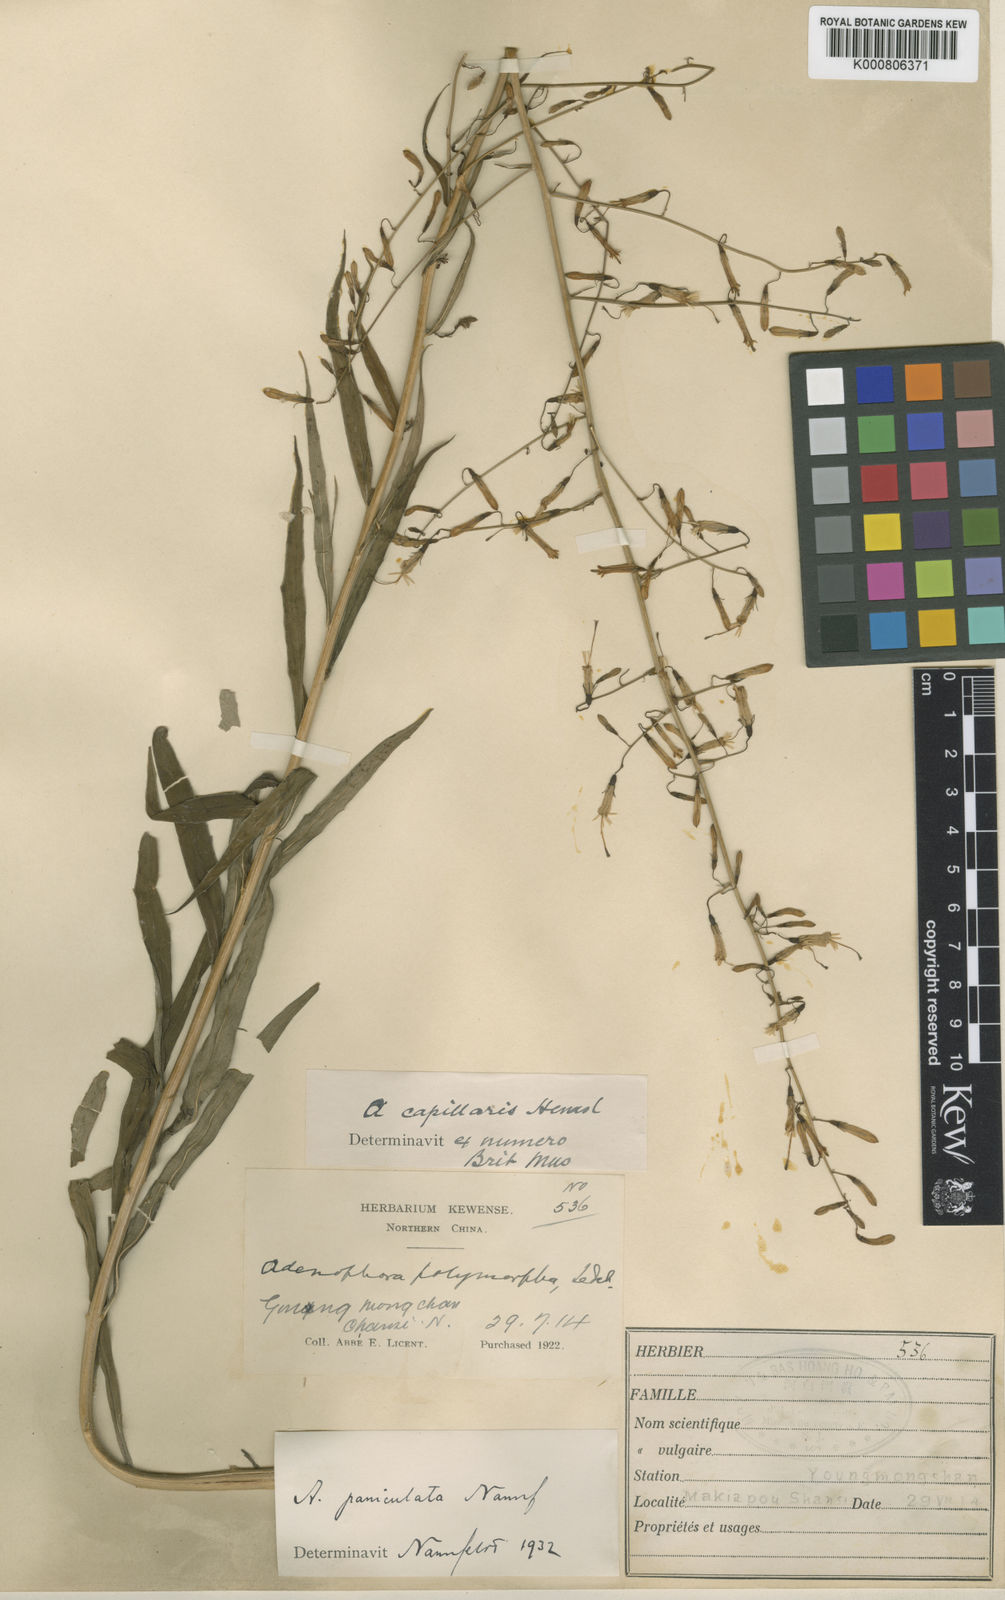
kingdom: Plantae
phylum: Tracheophyta
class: Magnoliopsida
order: Asterales
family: Campanulaceae
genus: Adenophora
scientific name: Adenophora capillaris
